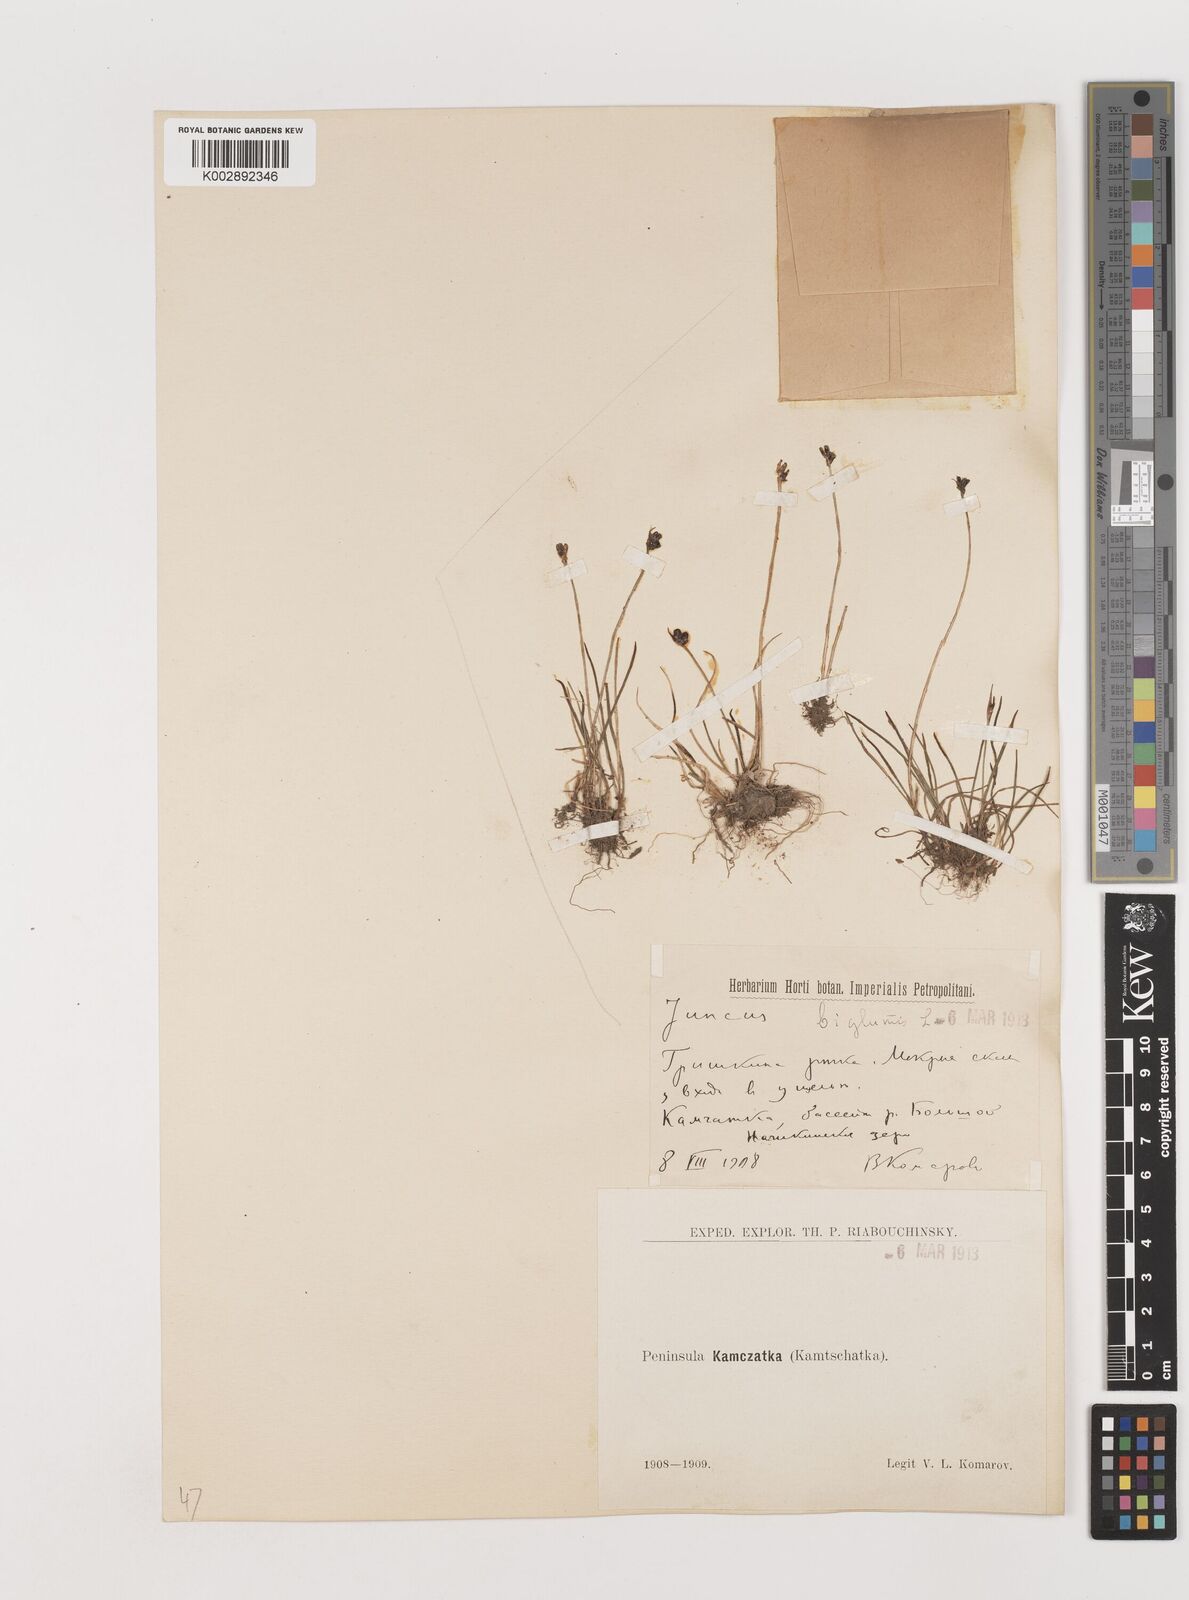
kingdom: Plantae
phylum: Tracheophyta
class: Liliopsida
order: Poales
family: Juncaceae
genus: Juncus
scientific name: Juncus biglumis
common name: Two-flowered rush
